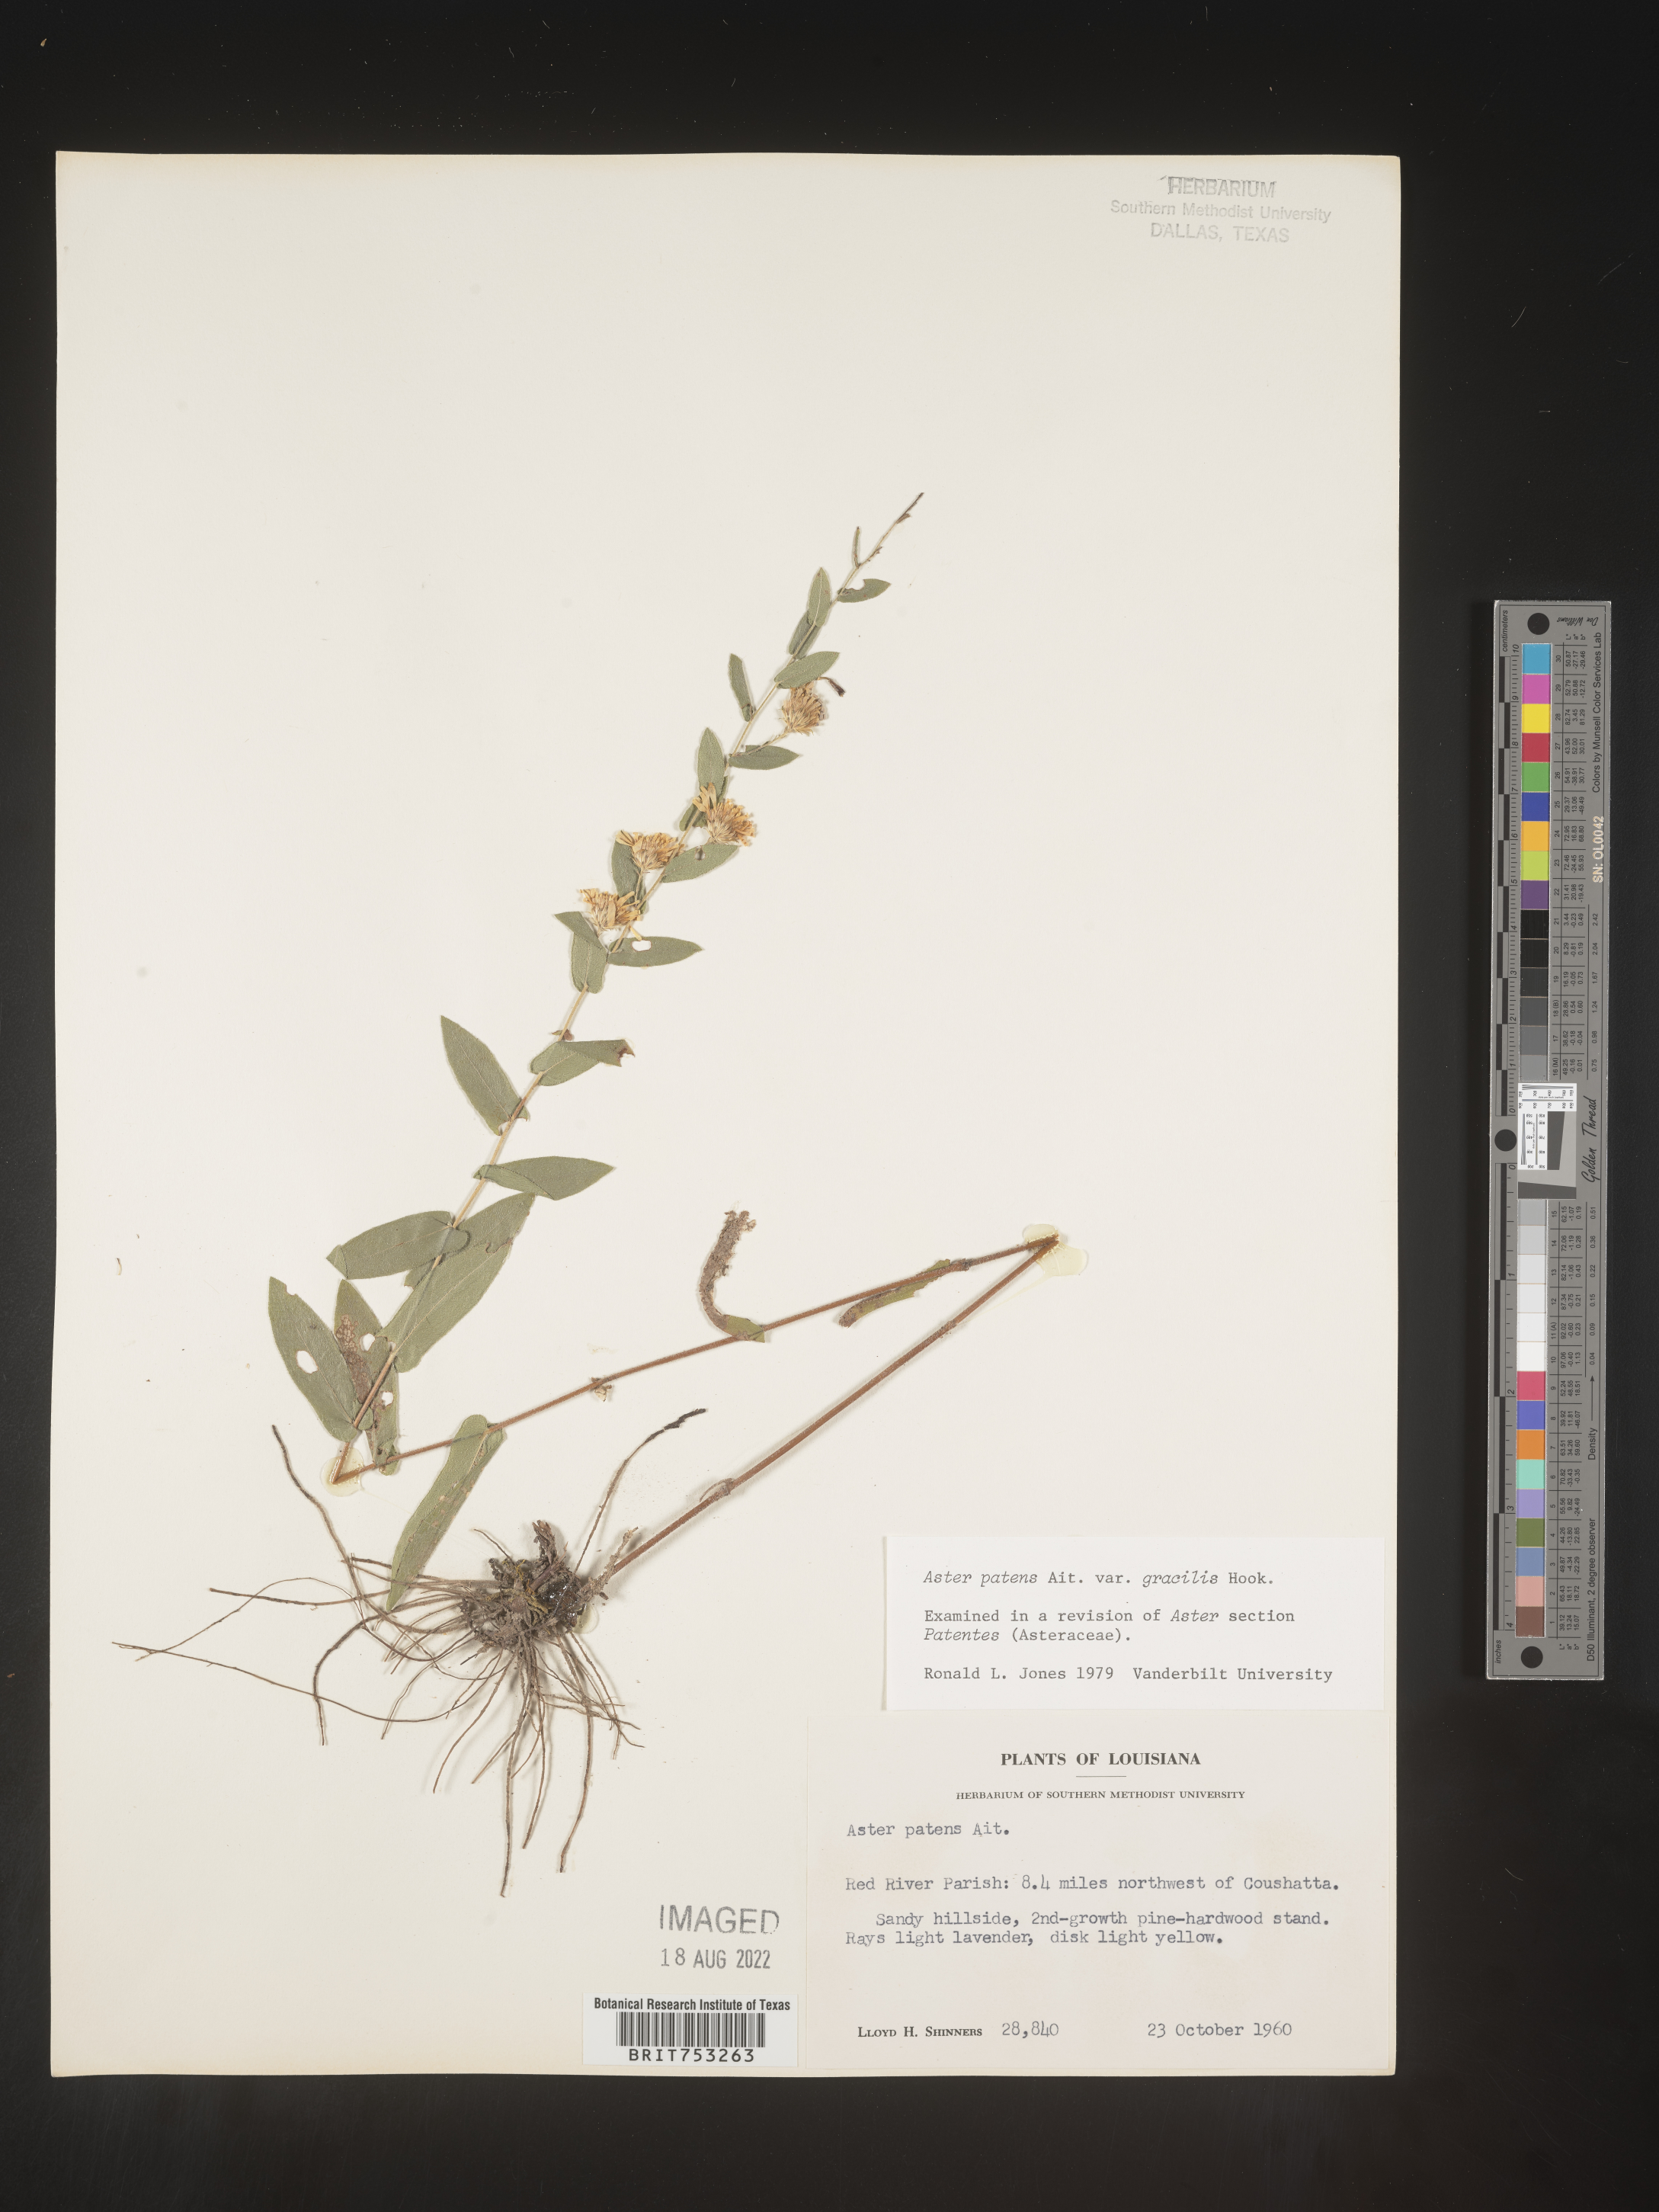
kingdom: Plantae
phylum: Tracheophyta
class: Magnoliopsida
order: Asterales
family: Asteraceae
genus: Symphyotrichum
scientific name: Symphyotrichum patens
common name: Late purple aster
